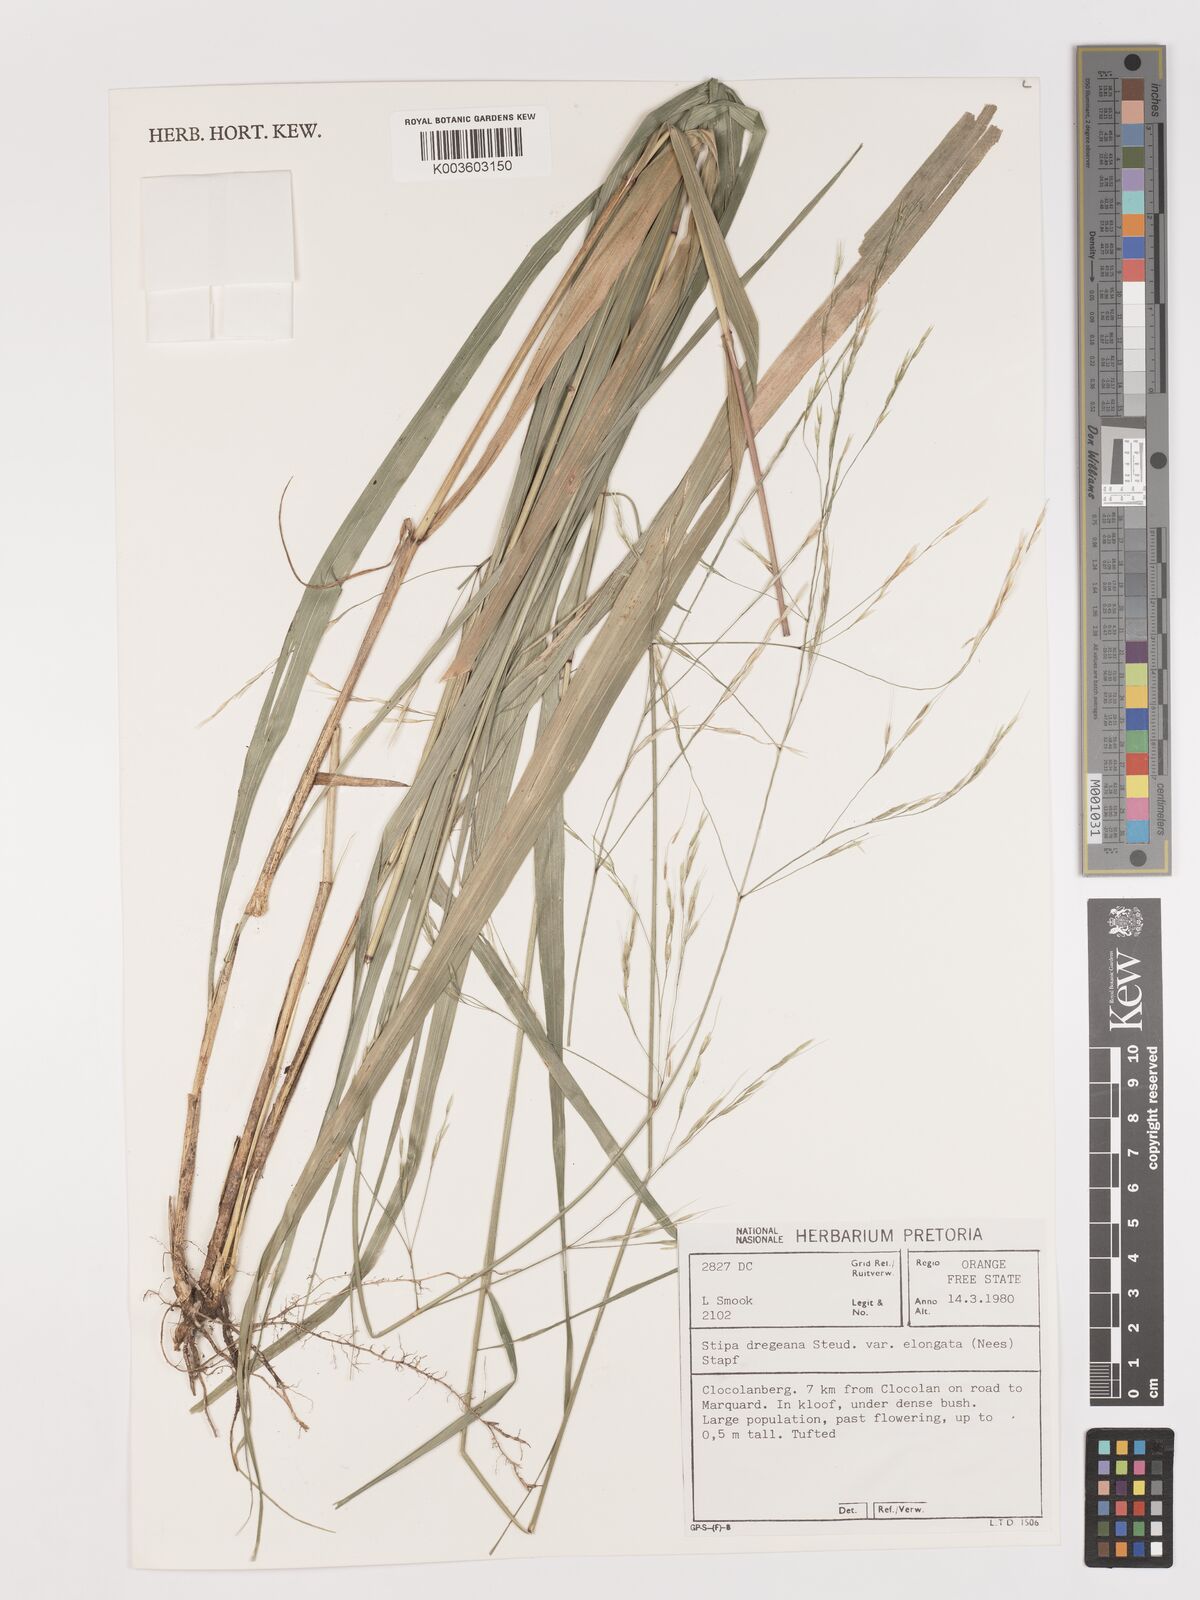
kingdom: Plantae
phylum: Tracheophyta
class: Liliopsida
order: Poales
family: Poaceae
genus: Stipa
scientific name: Stipa dregeana
